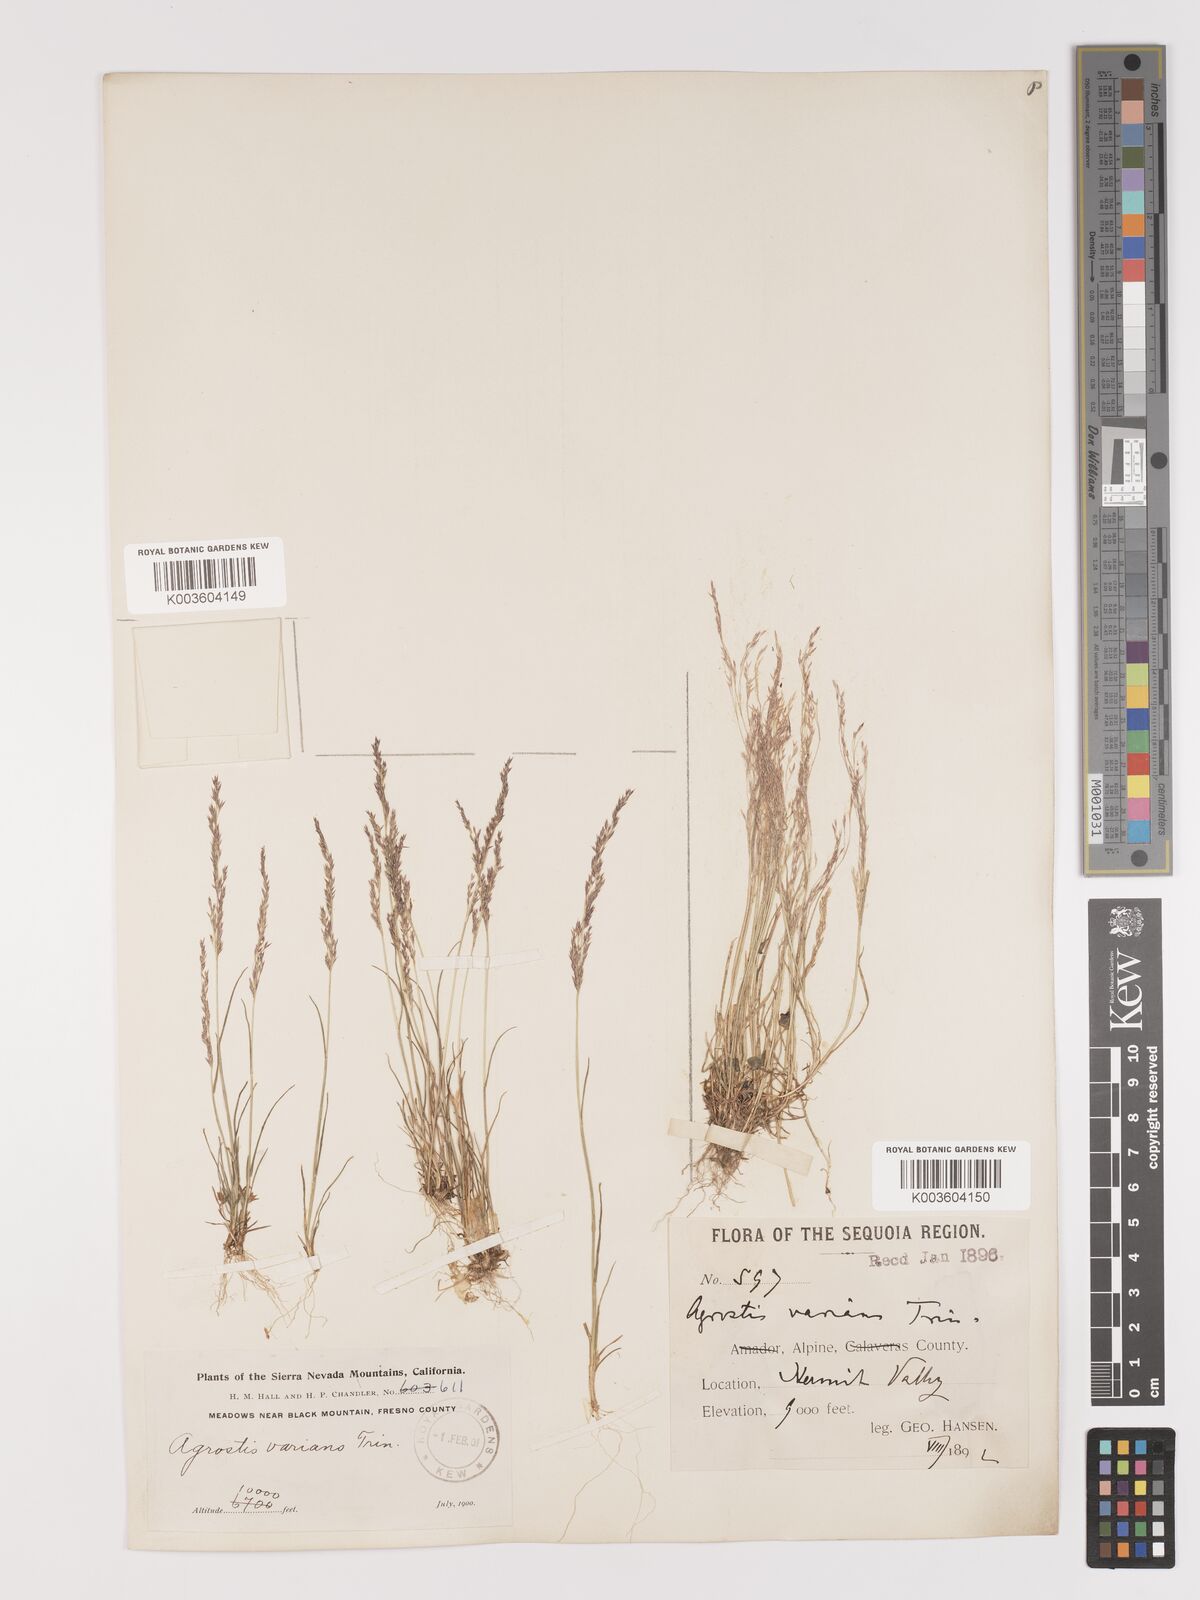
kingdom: Plantae
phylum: Tracheophyta
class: Liliopsida
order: Poales
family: Poaceae
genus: Agrostis
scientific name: Agrostis rossiae
